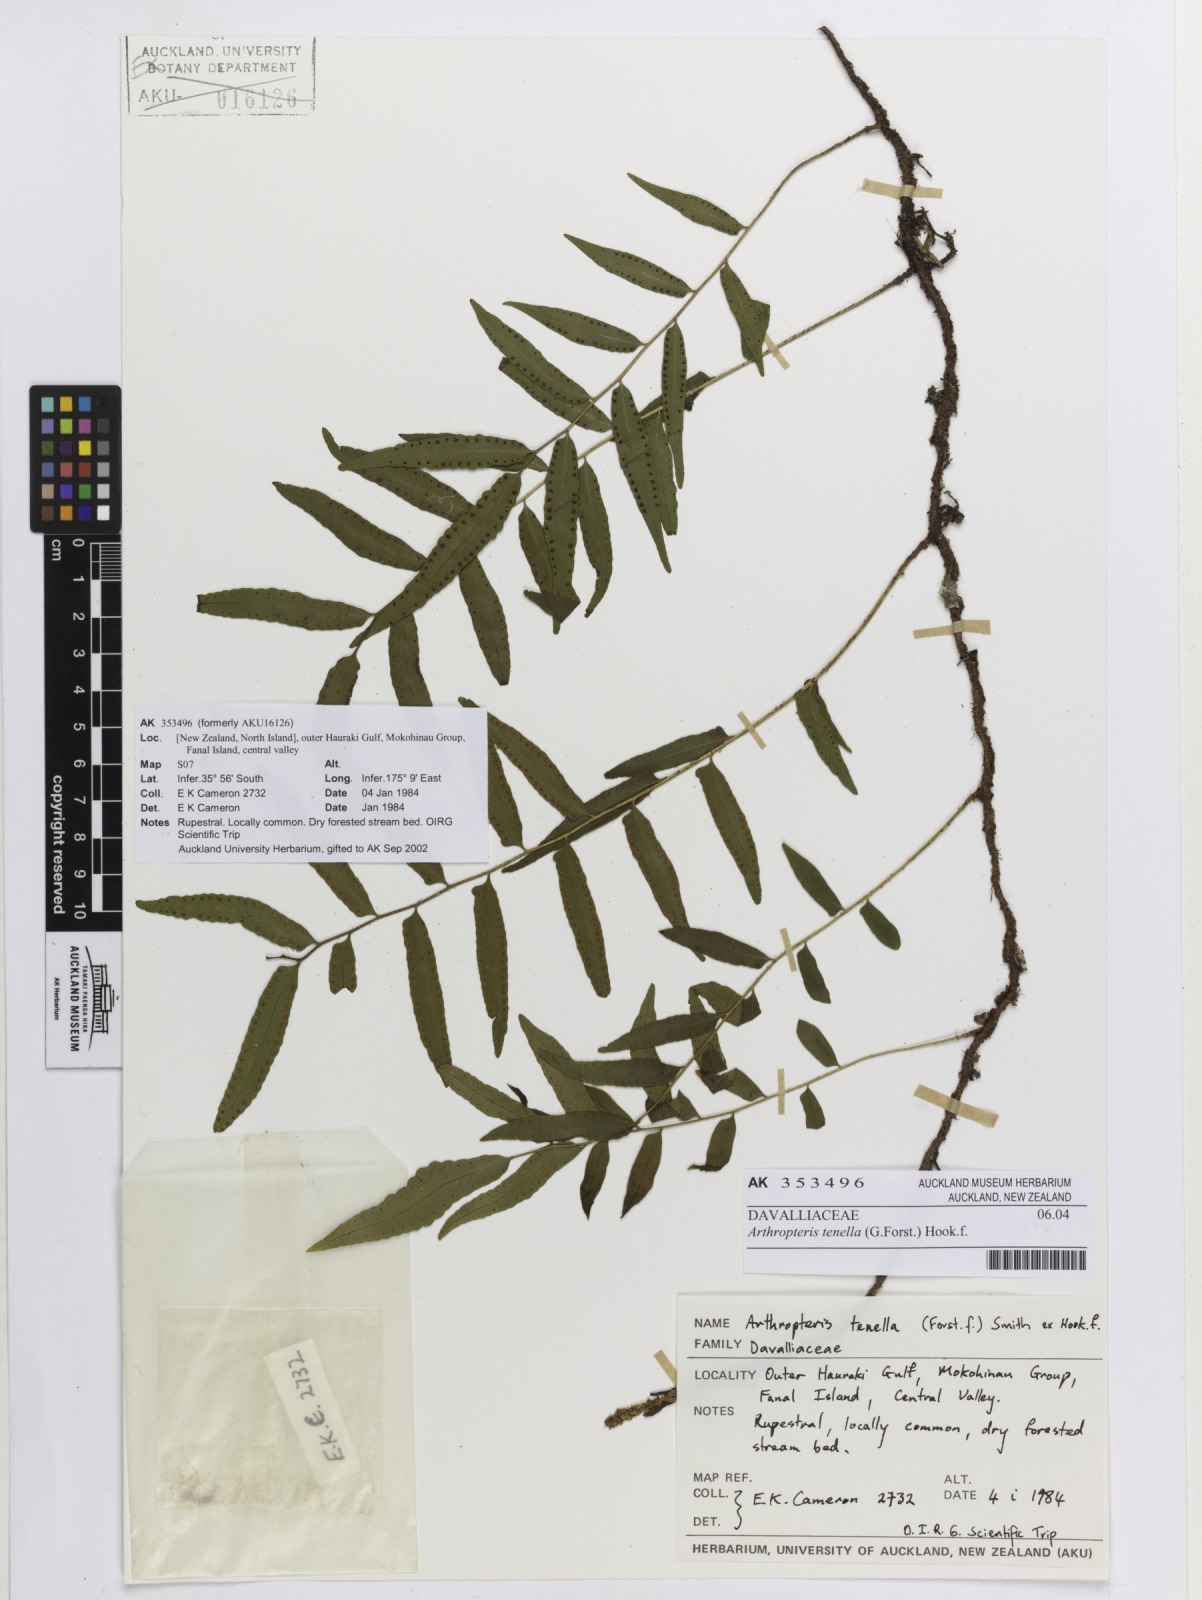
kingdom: Plantae
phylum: Tracheophyta
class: Polypodiopsida
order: Polypodiales
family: Tectariaceae
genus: Arthropteris
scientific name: Arthropteris tenella
